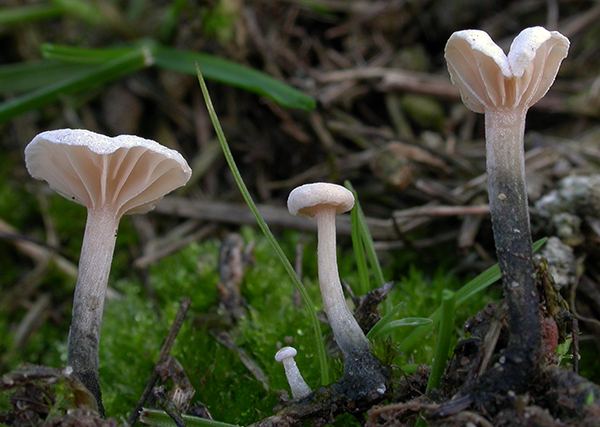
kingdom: Fungi
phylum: Basidiomycota
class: Agaricomycetes
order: Agaricales
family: Omphalotaceae
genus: Marasmiellus
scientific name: Marasmiellus tricolor
